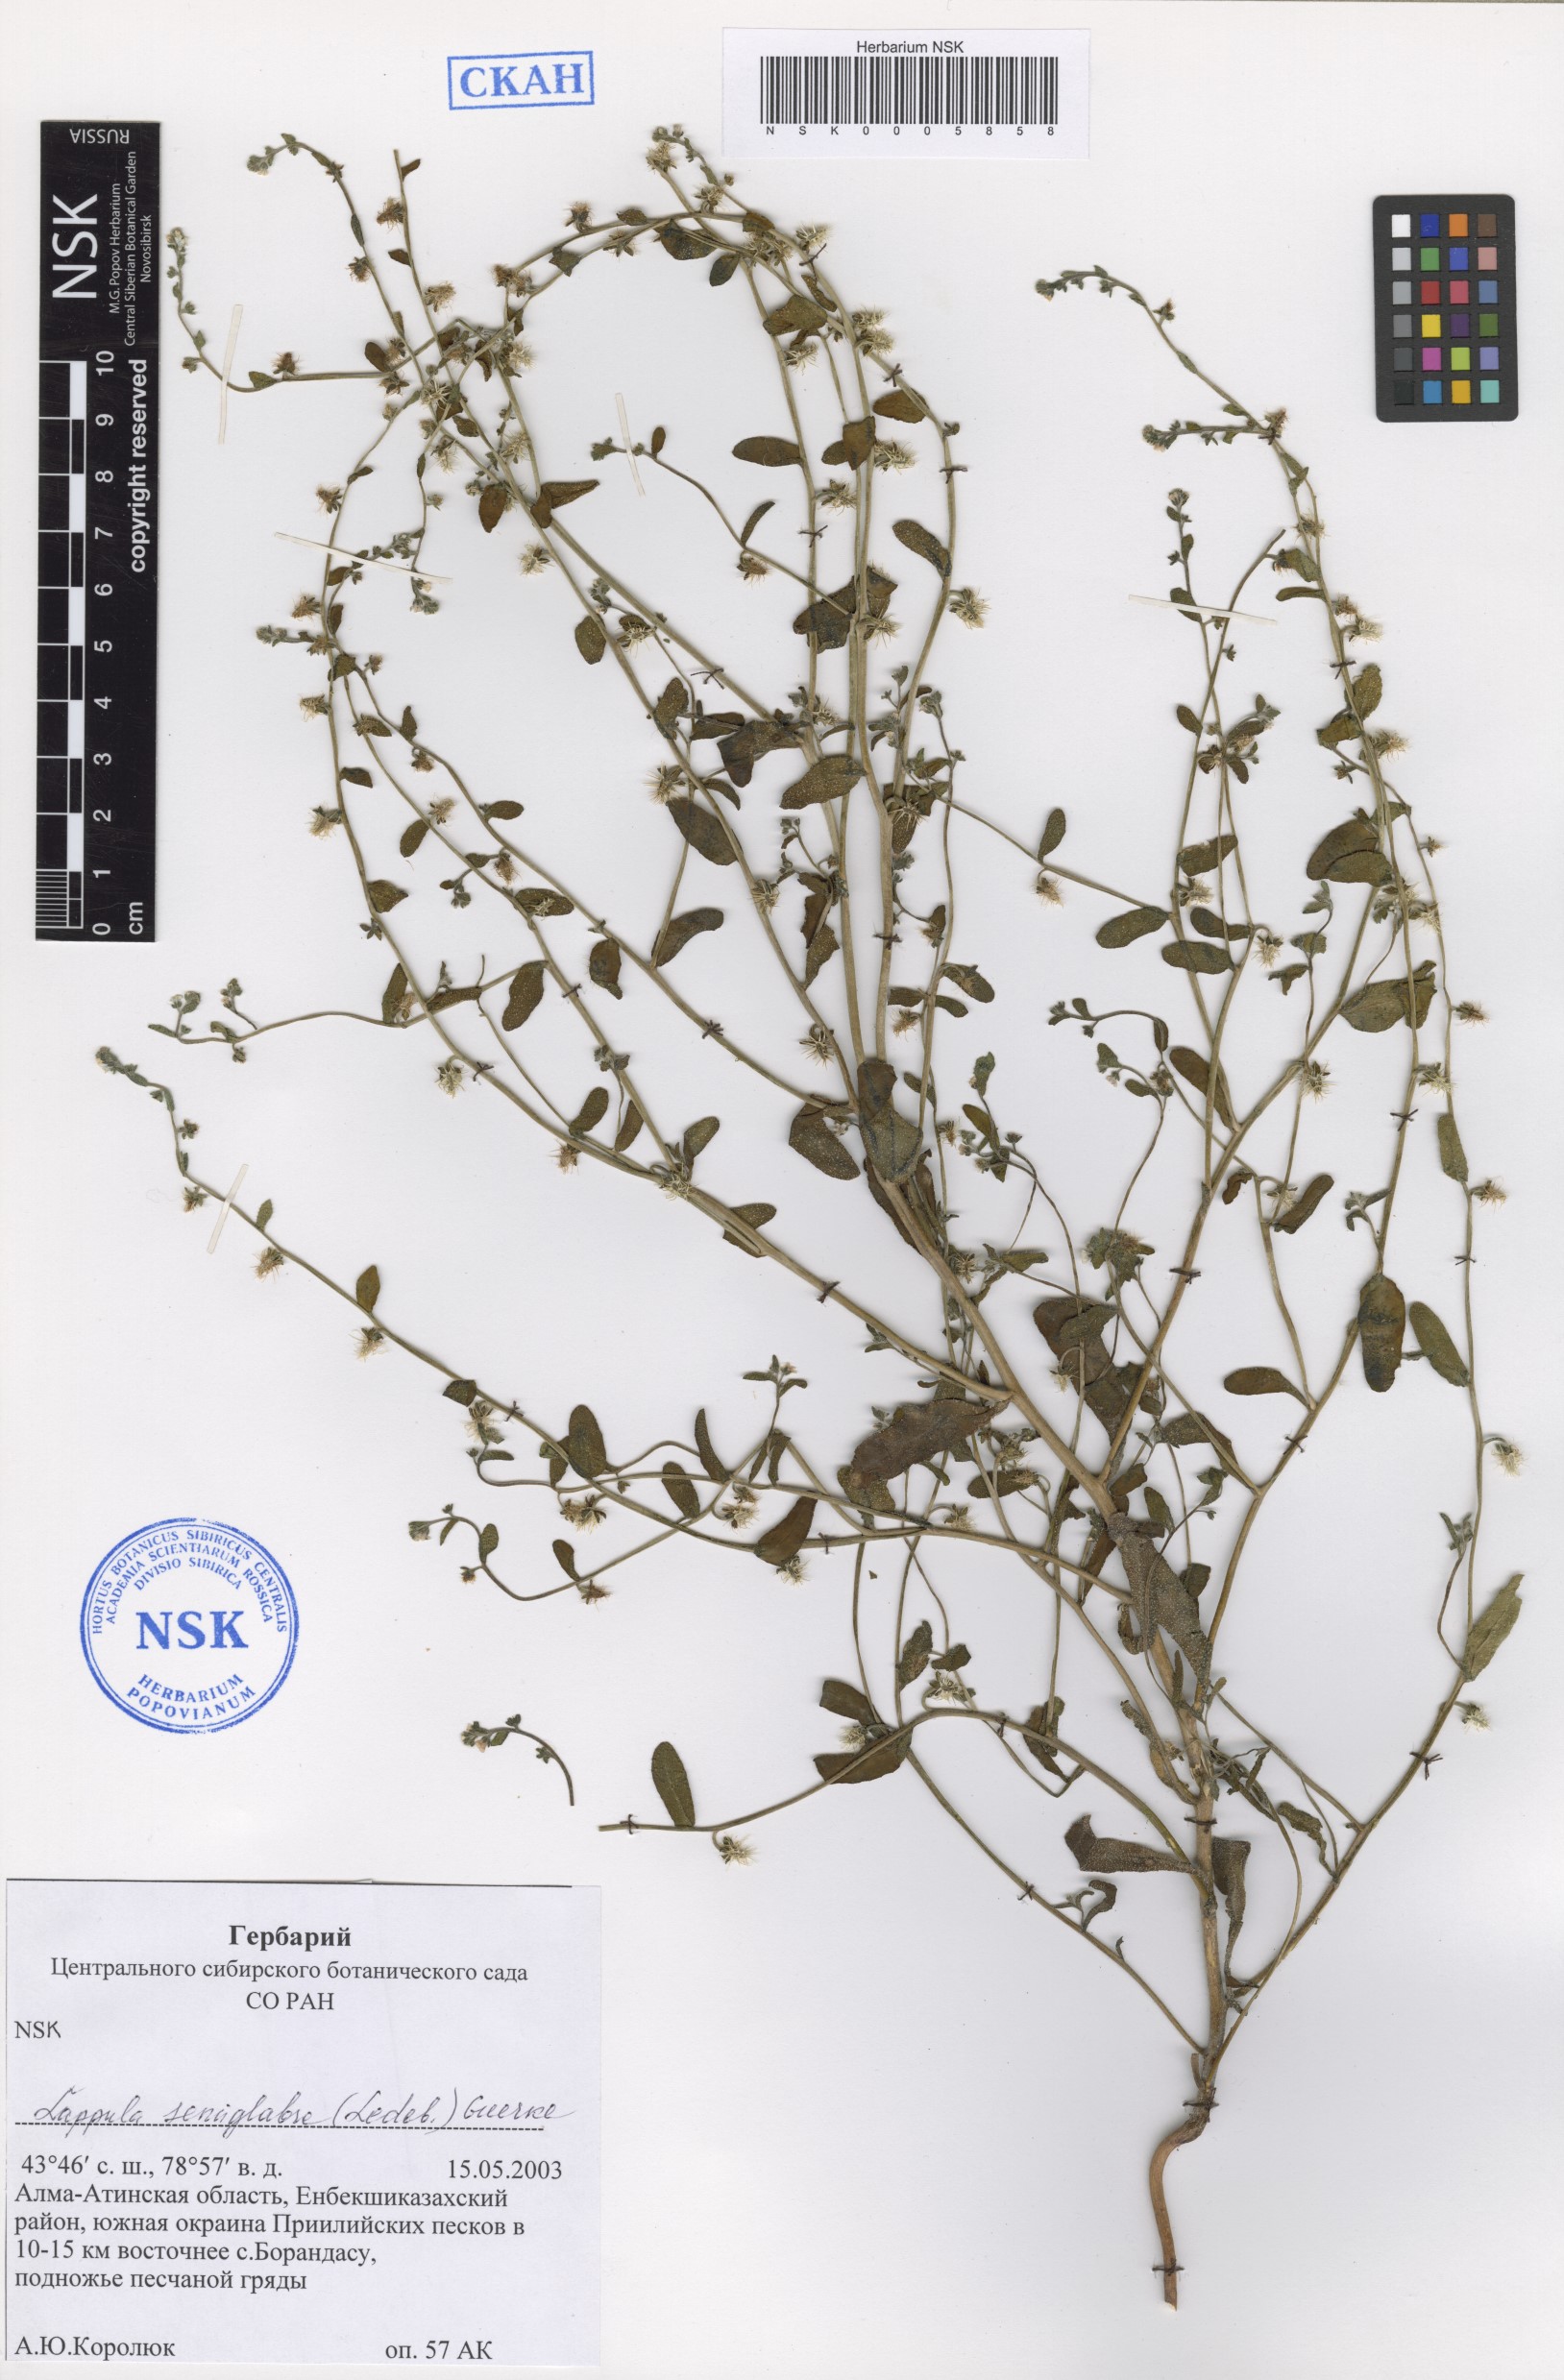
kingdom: Plantae
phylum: Tracheophyta
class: Magnoliopsida
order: Boraginales
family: Boraginaceae
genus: Lappula
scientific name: Lappula patula
